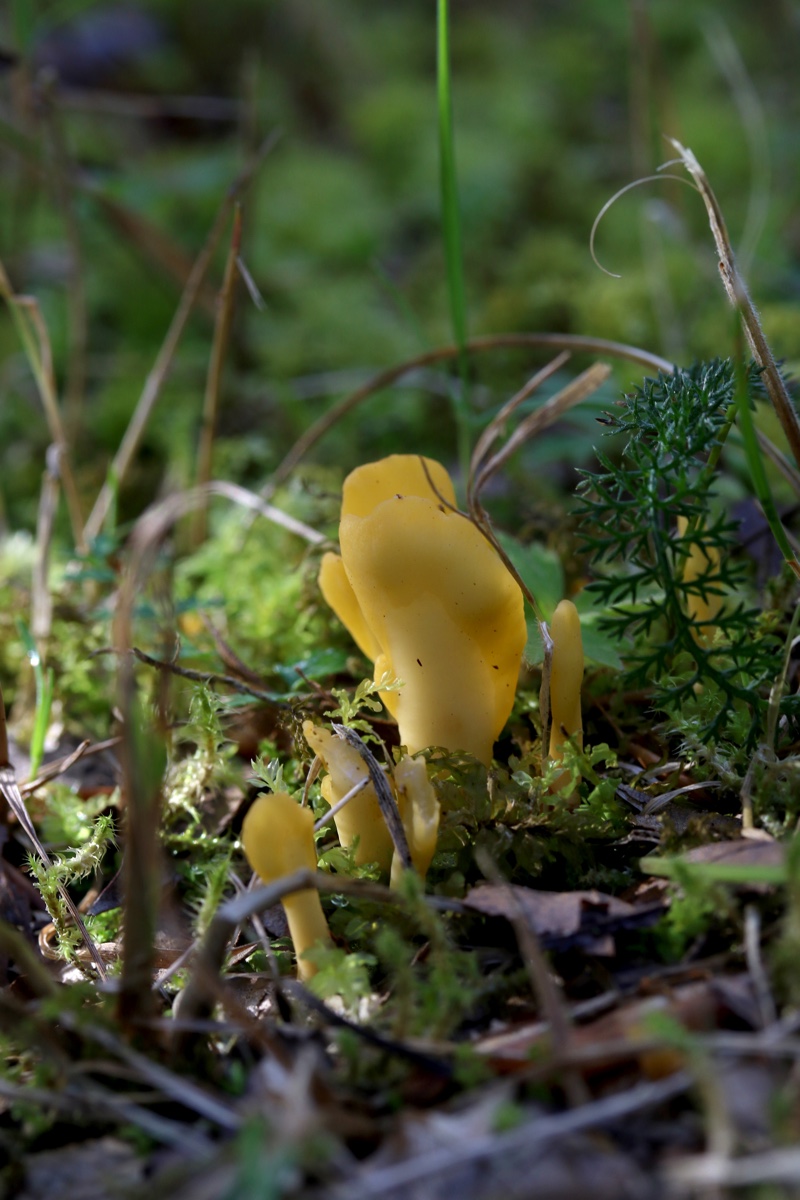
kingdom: Fungi
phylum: Ascomycota
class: Leotiomycetes
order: Rhytismatales
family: Cudoniaceae
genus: Spathularia
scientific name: Spathularia flavida
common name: gul spatelsvamp
